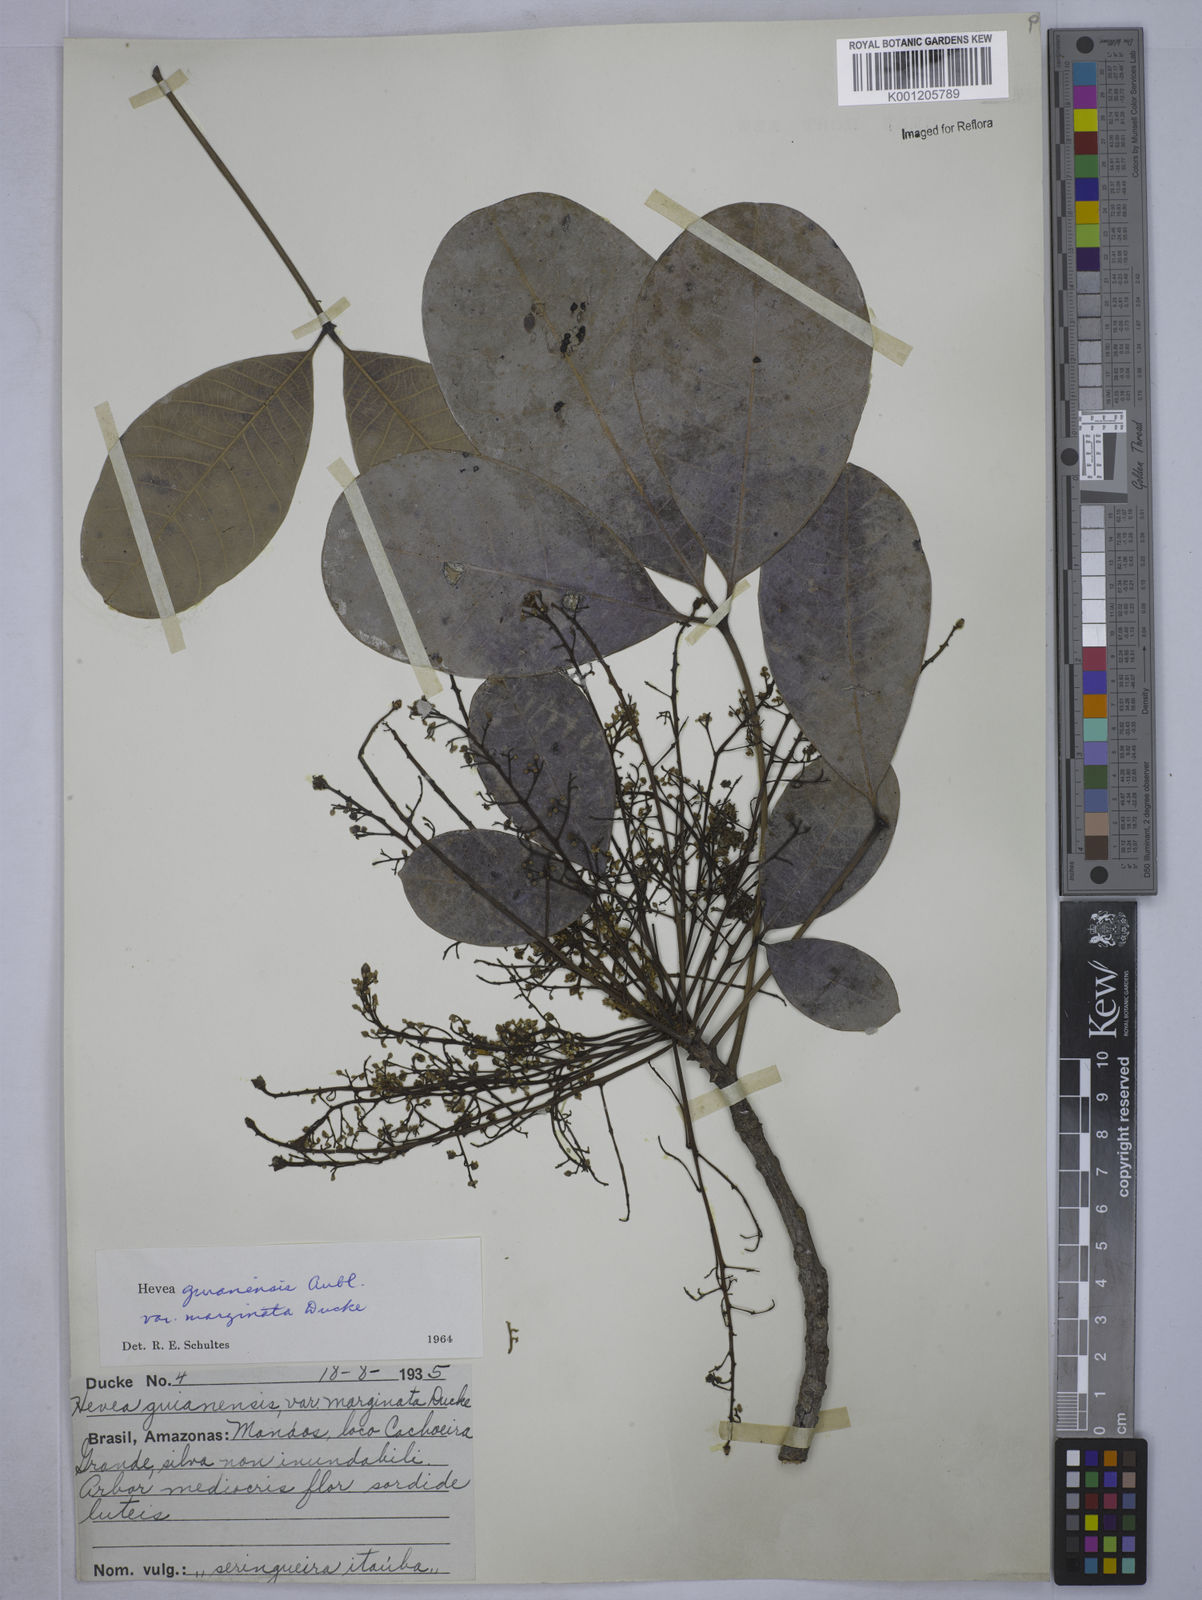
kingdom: Plantae
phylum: Tracheophyta
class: Magnoliopsida
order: Malpighiales
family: Euphorbiaceae
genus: Hevea
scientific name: Hevea guianensis
